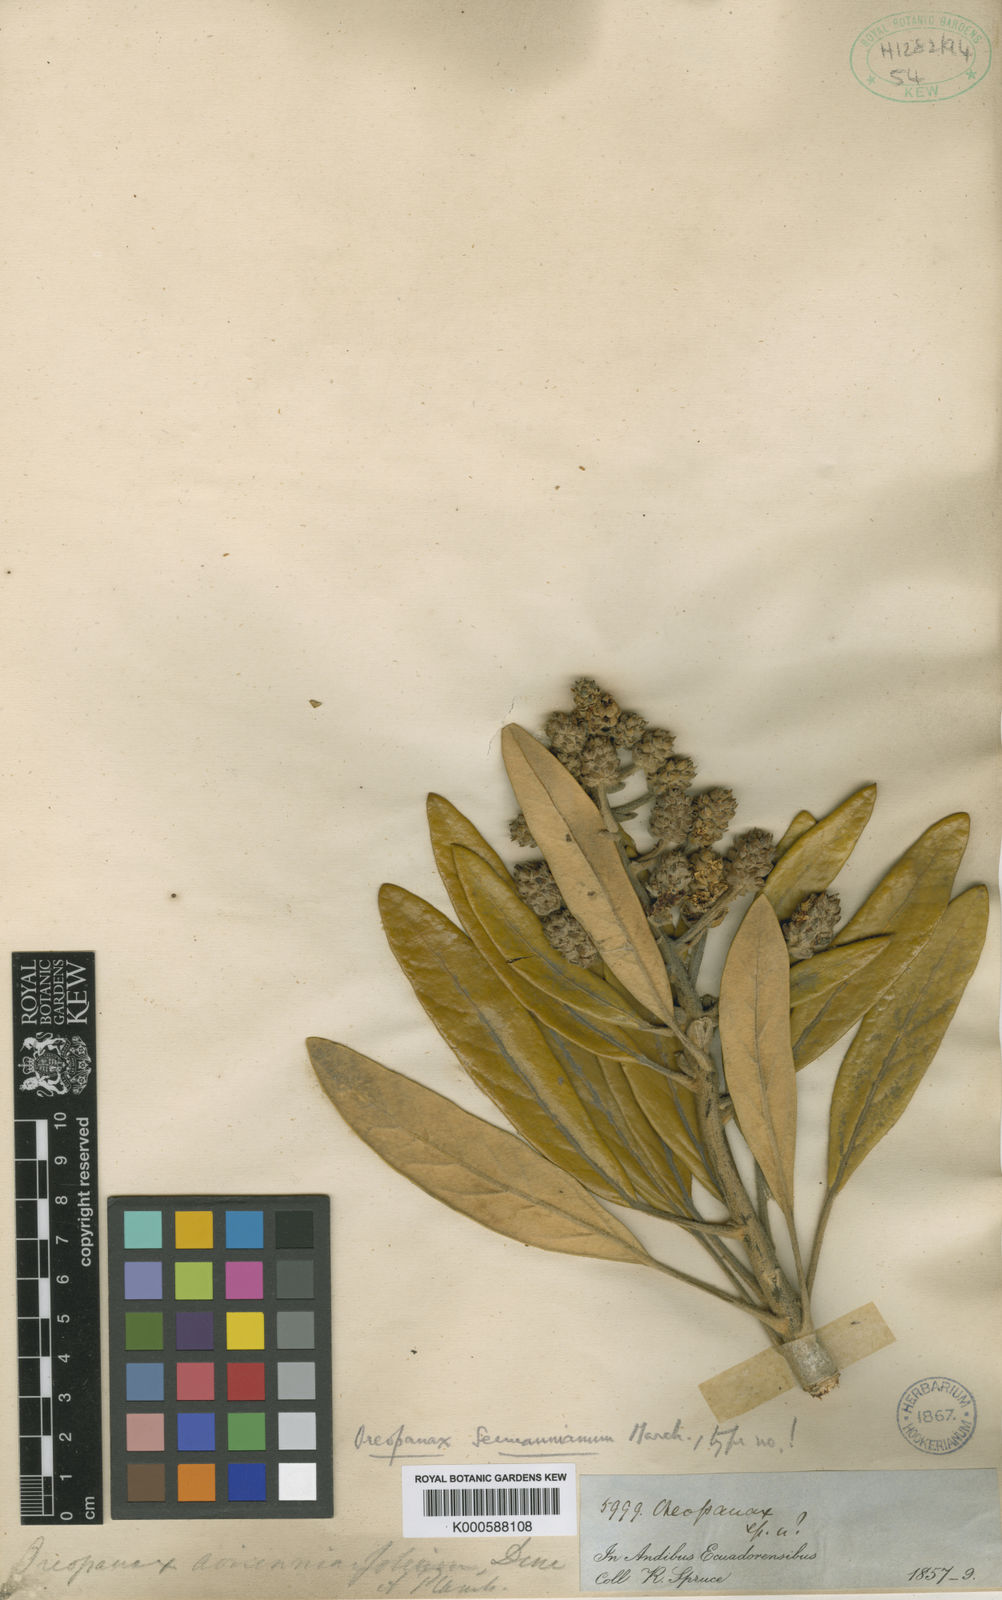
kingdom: Plantae
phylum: Tracheophyta
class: Magnoliopsida
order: Apiales
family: Araliaceae
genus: Oreopanax
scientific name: Oreopanax seemannianus
